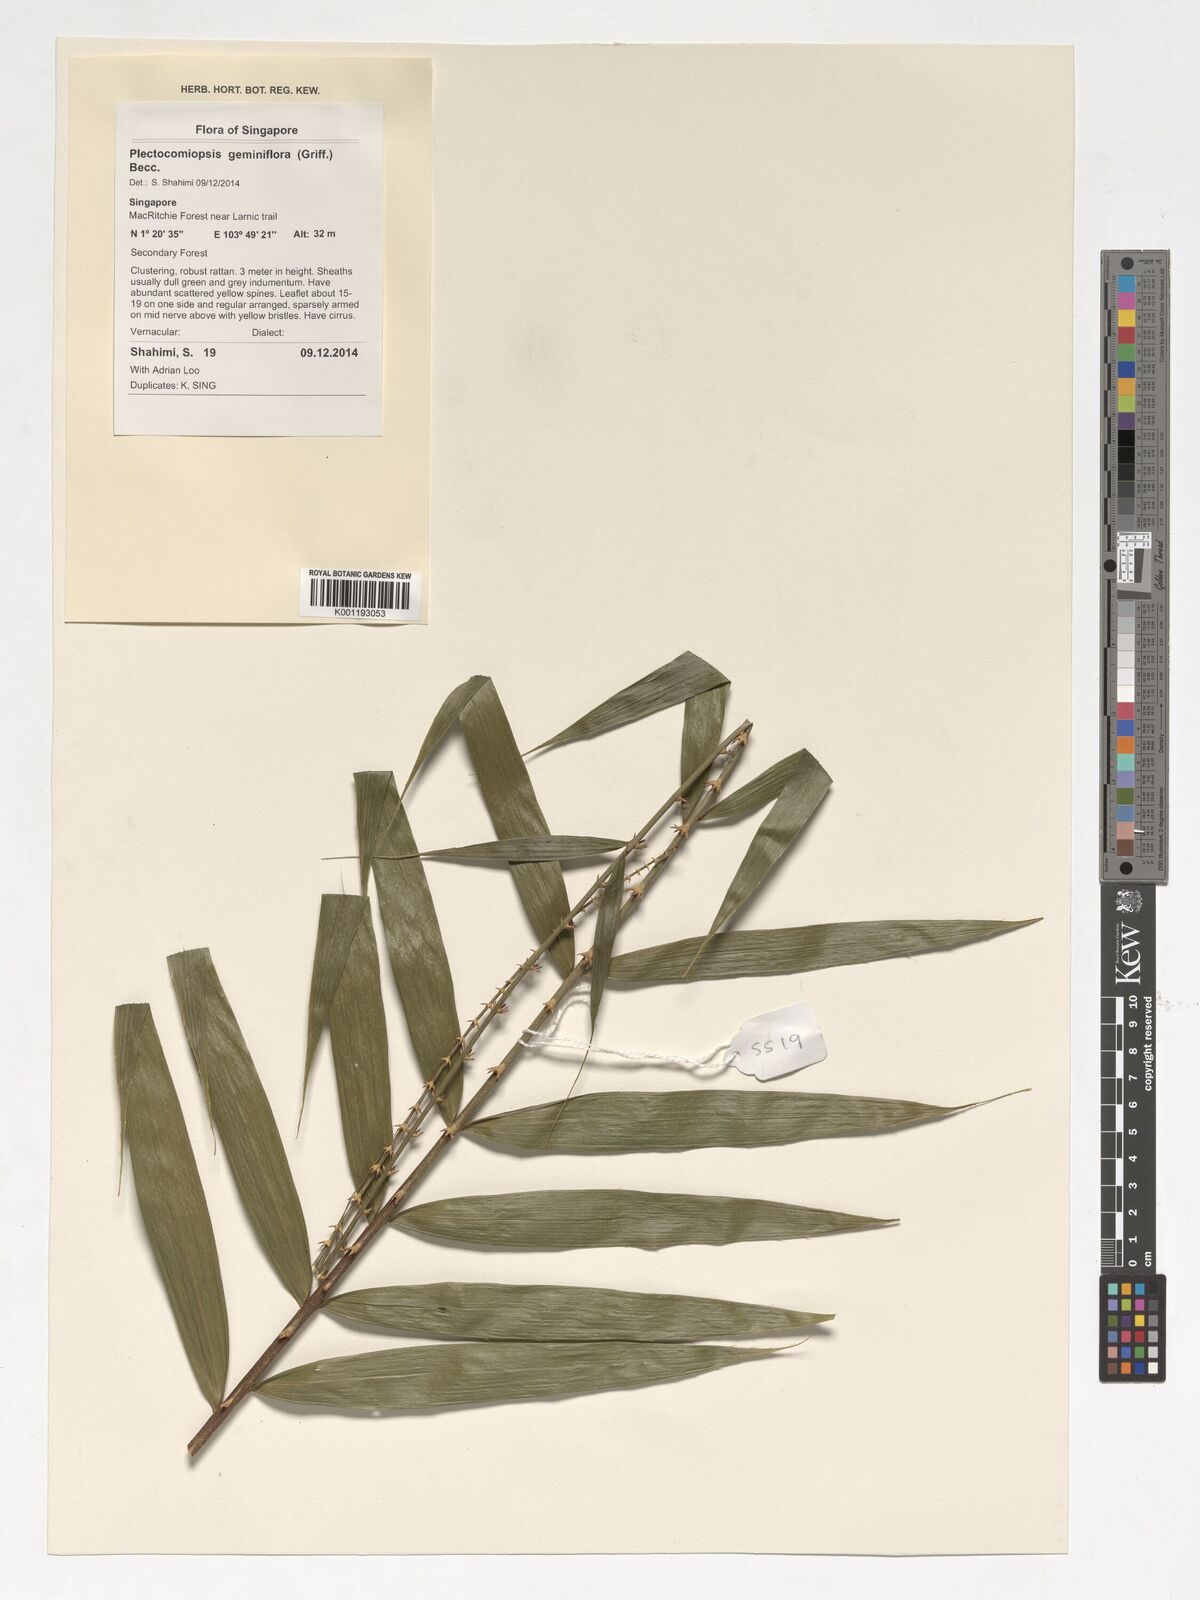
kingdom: Plantae
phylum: Tracheophyta
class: Liliopsida
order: Arecales
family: Arecaceae
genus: Plectocomiopsis
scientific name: Plectocomiopsis geminiflora
